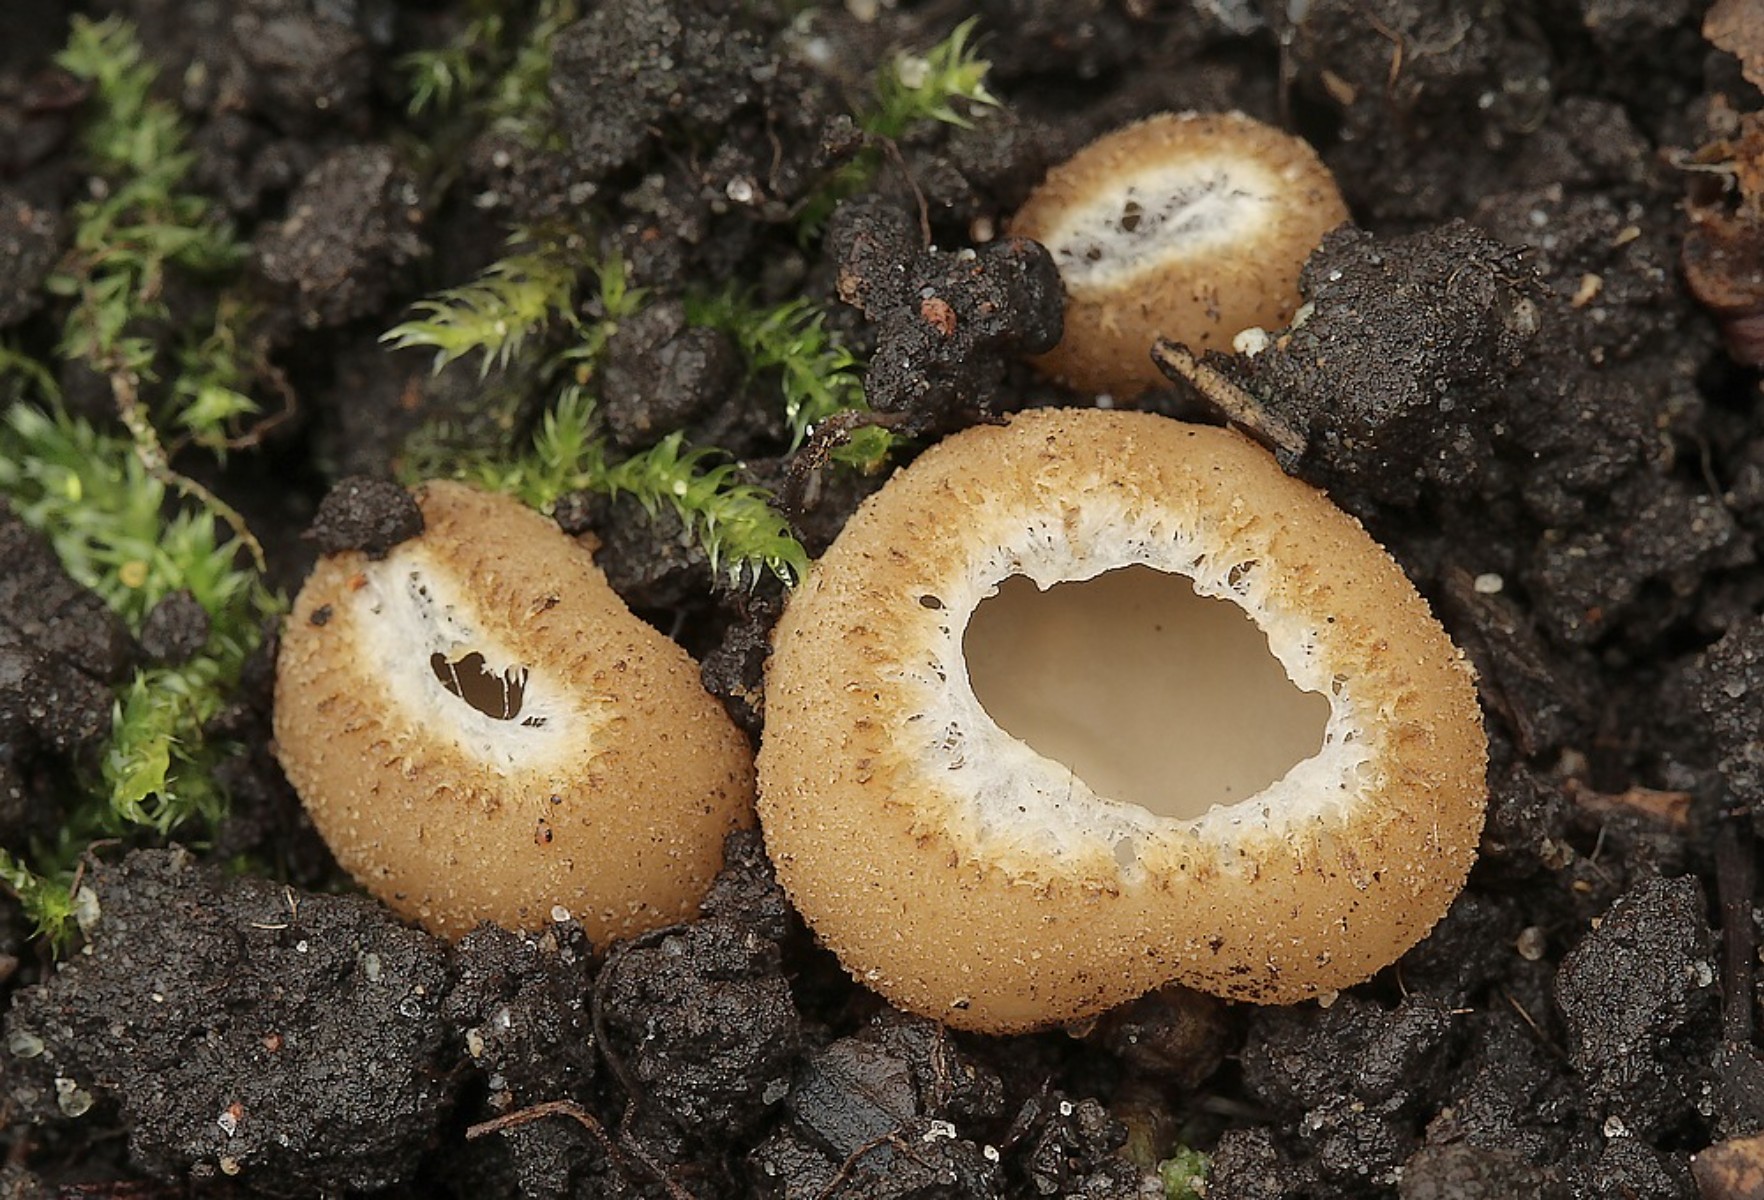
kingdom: Fungi
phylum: Ascomycota
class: Pezizomycetes
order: Pezizales
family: Pyronemataceae
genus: Tarzetta
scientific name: Tarzetta cupularis
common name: gulbrun pokalbæger
